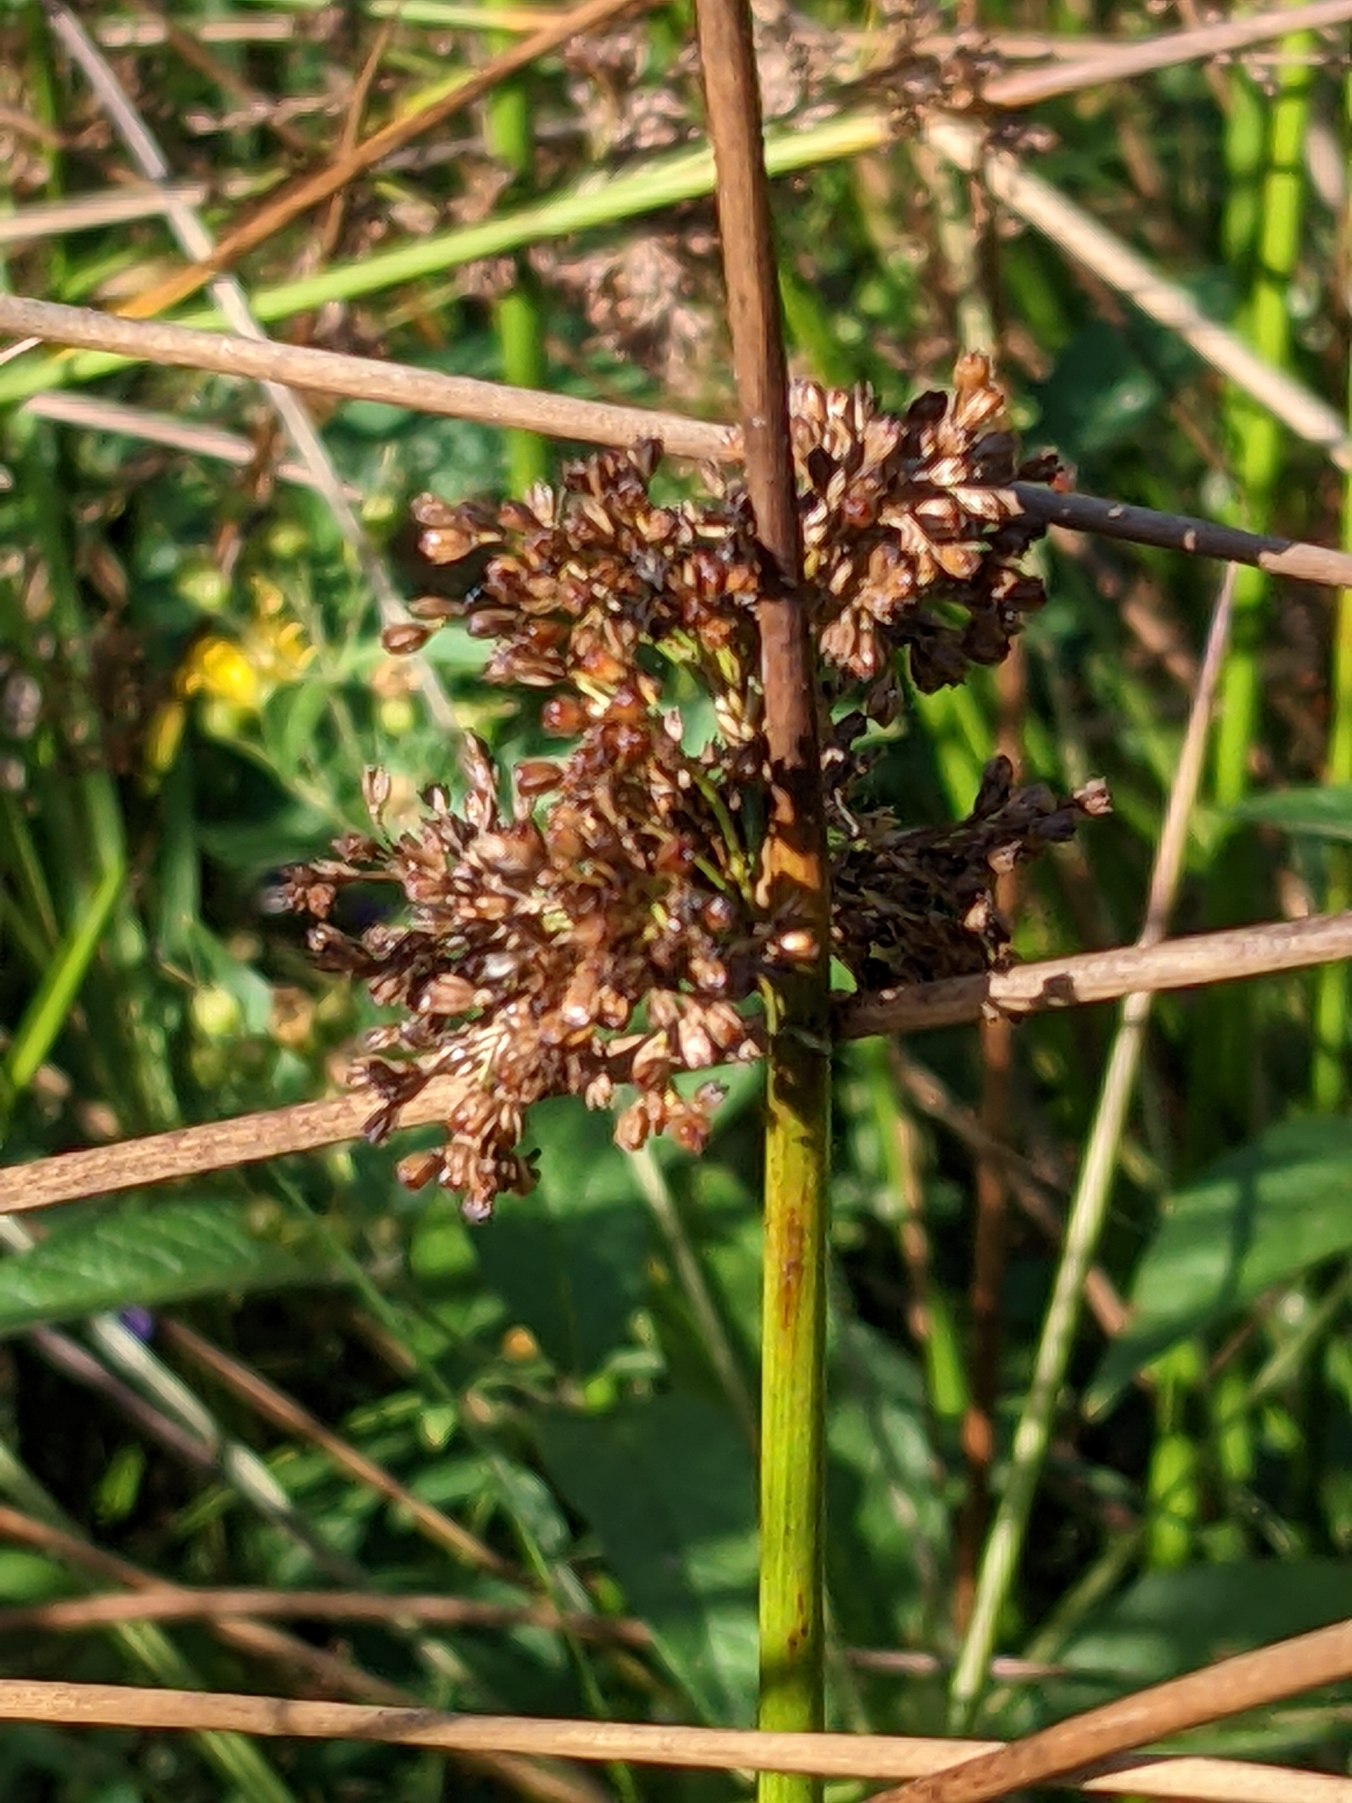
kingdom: Plantae
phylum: Tracheophyta
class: Liliopsida
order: Poales
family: Juncaceae
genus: Juncus
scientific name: Juncus effusus
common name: Lyse-siv
